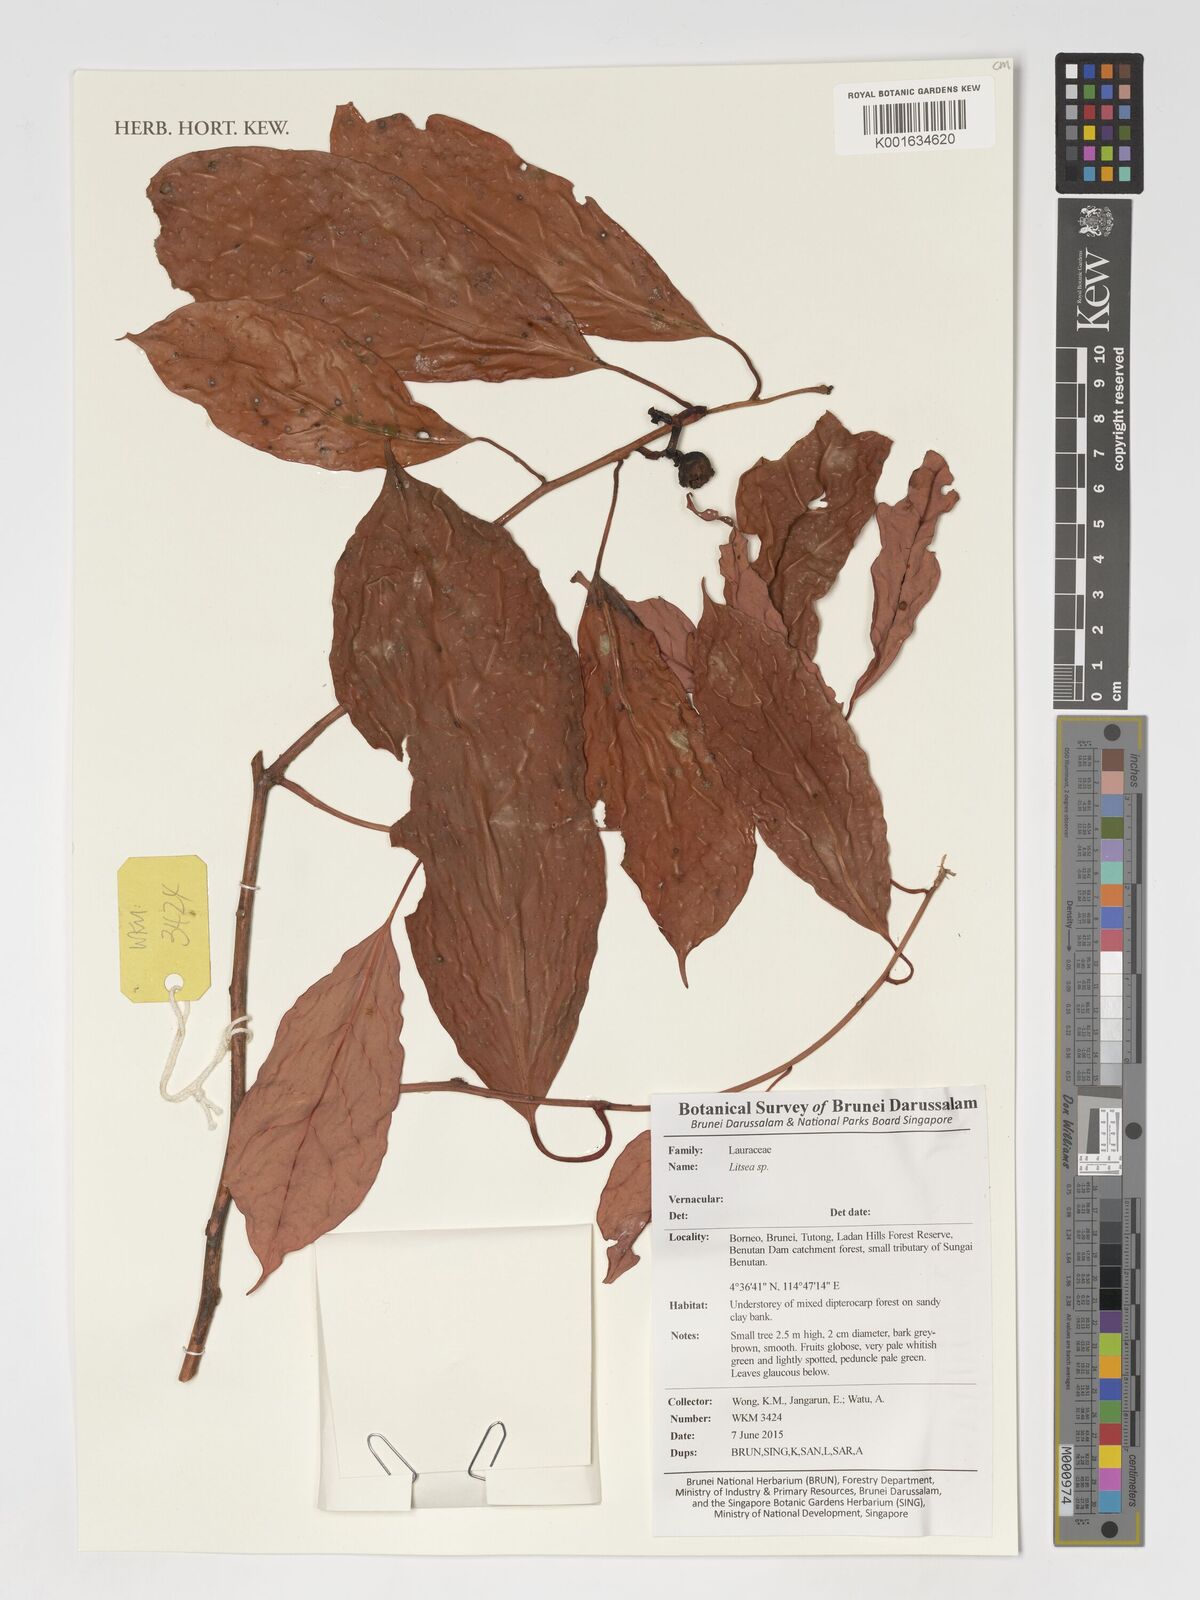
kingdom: Plantae
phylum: Tracheophyta
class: Magnoliopsida
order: Laurales
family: Lauraceae
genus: Litsea
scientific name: Litsea
